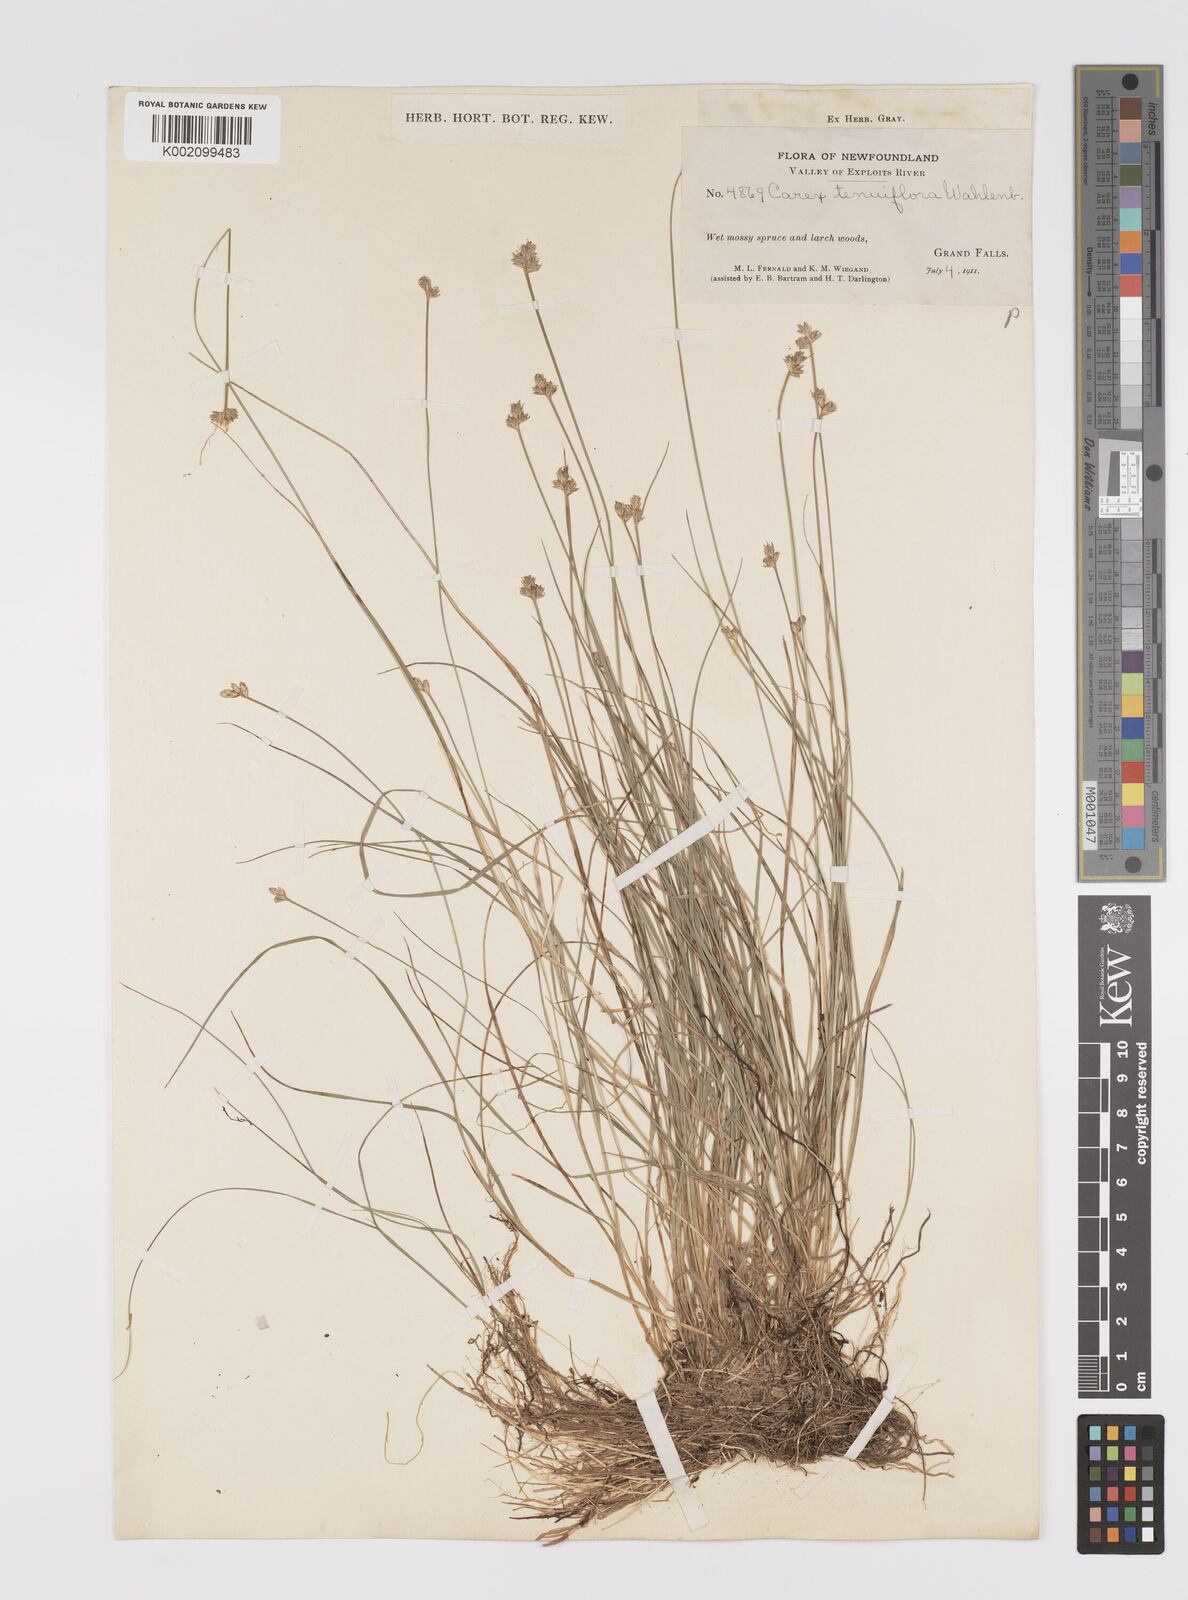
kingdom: Plantae
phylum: Tracheophyta
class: Liliopsida
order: Poales
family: Cyperaceae
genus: Carex
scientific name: Carex tenuiflora
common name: Sparse-flowered sedge
